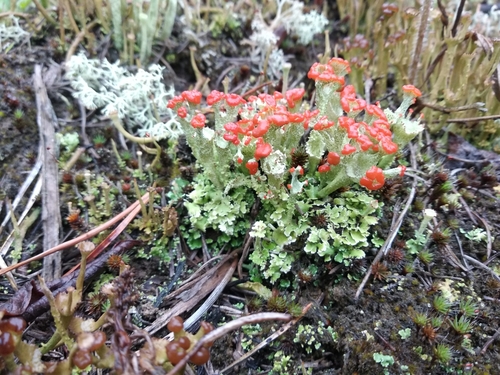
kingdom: Fungi
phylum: Ascomycota
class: Lecanoromycetes
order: Lecanorales
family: Cladoniaceae
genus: Cladonia
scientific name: Cladonia borealis
